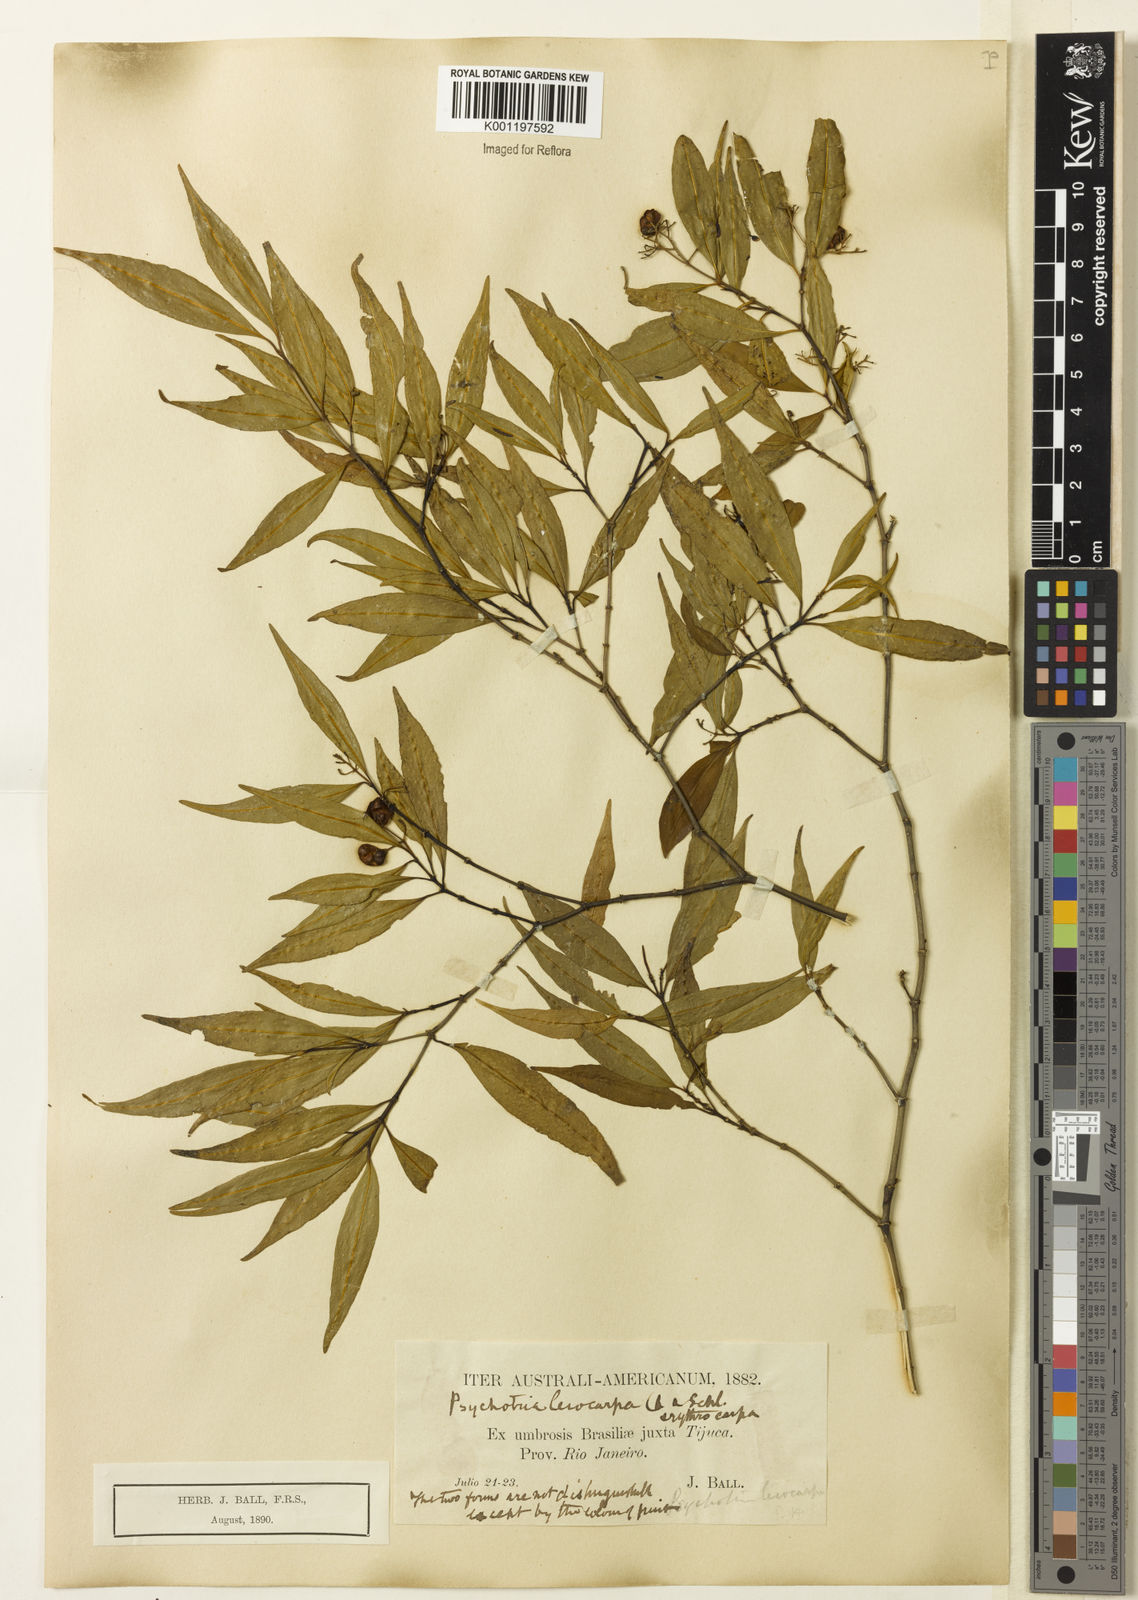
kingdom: Plantae
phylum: Tracheophyta
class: Magnoliopsida
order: Gentianales
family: Rubiaceae
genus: Psychotria
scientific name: Psychotria leiocarpa
